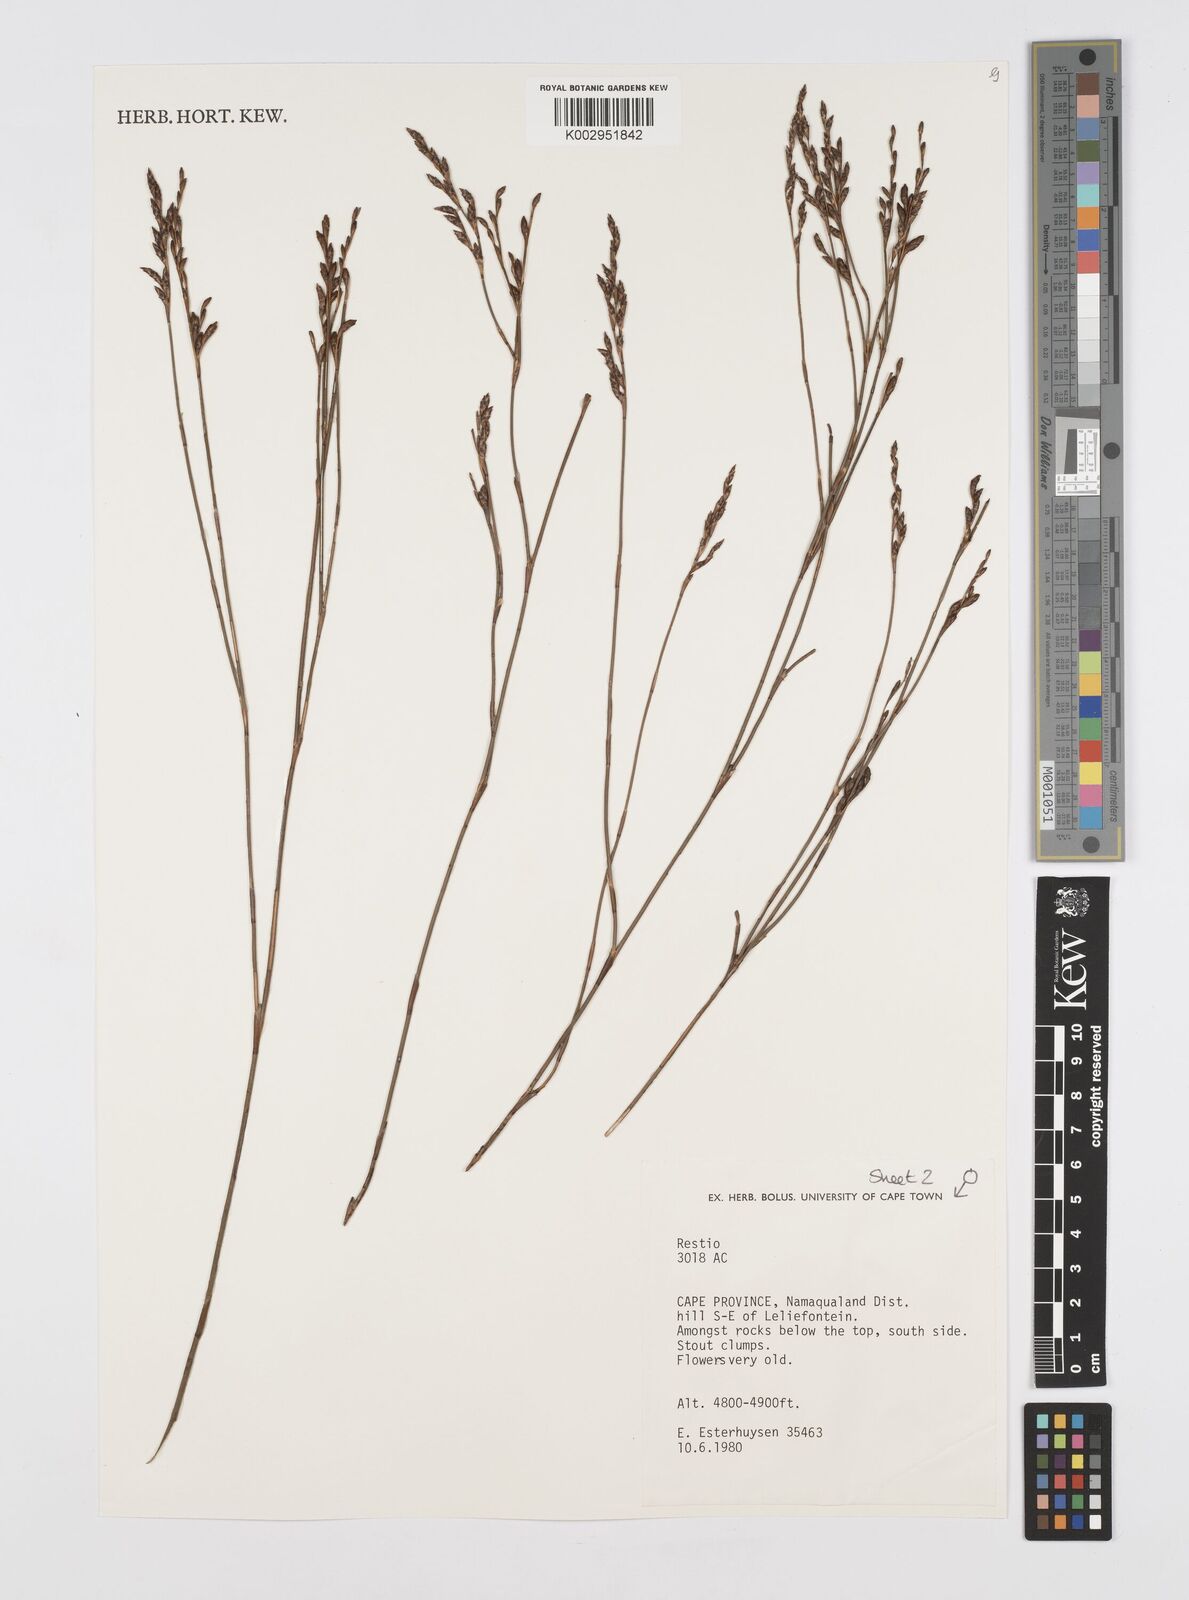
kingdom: Plantae
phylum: Tracheophyta
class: Liliopsida
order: Poales
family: Restionaceae
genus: Restio
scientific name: Restio
